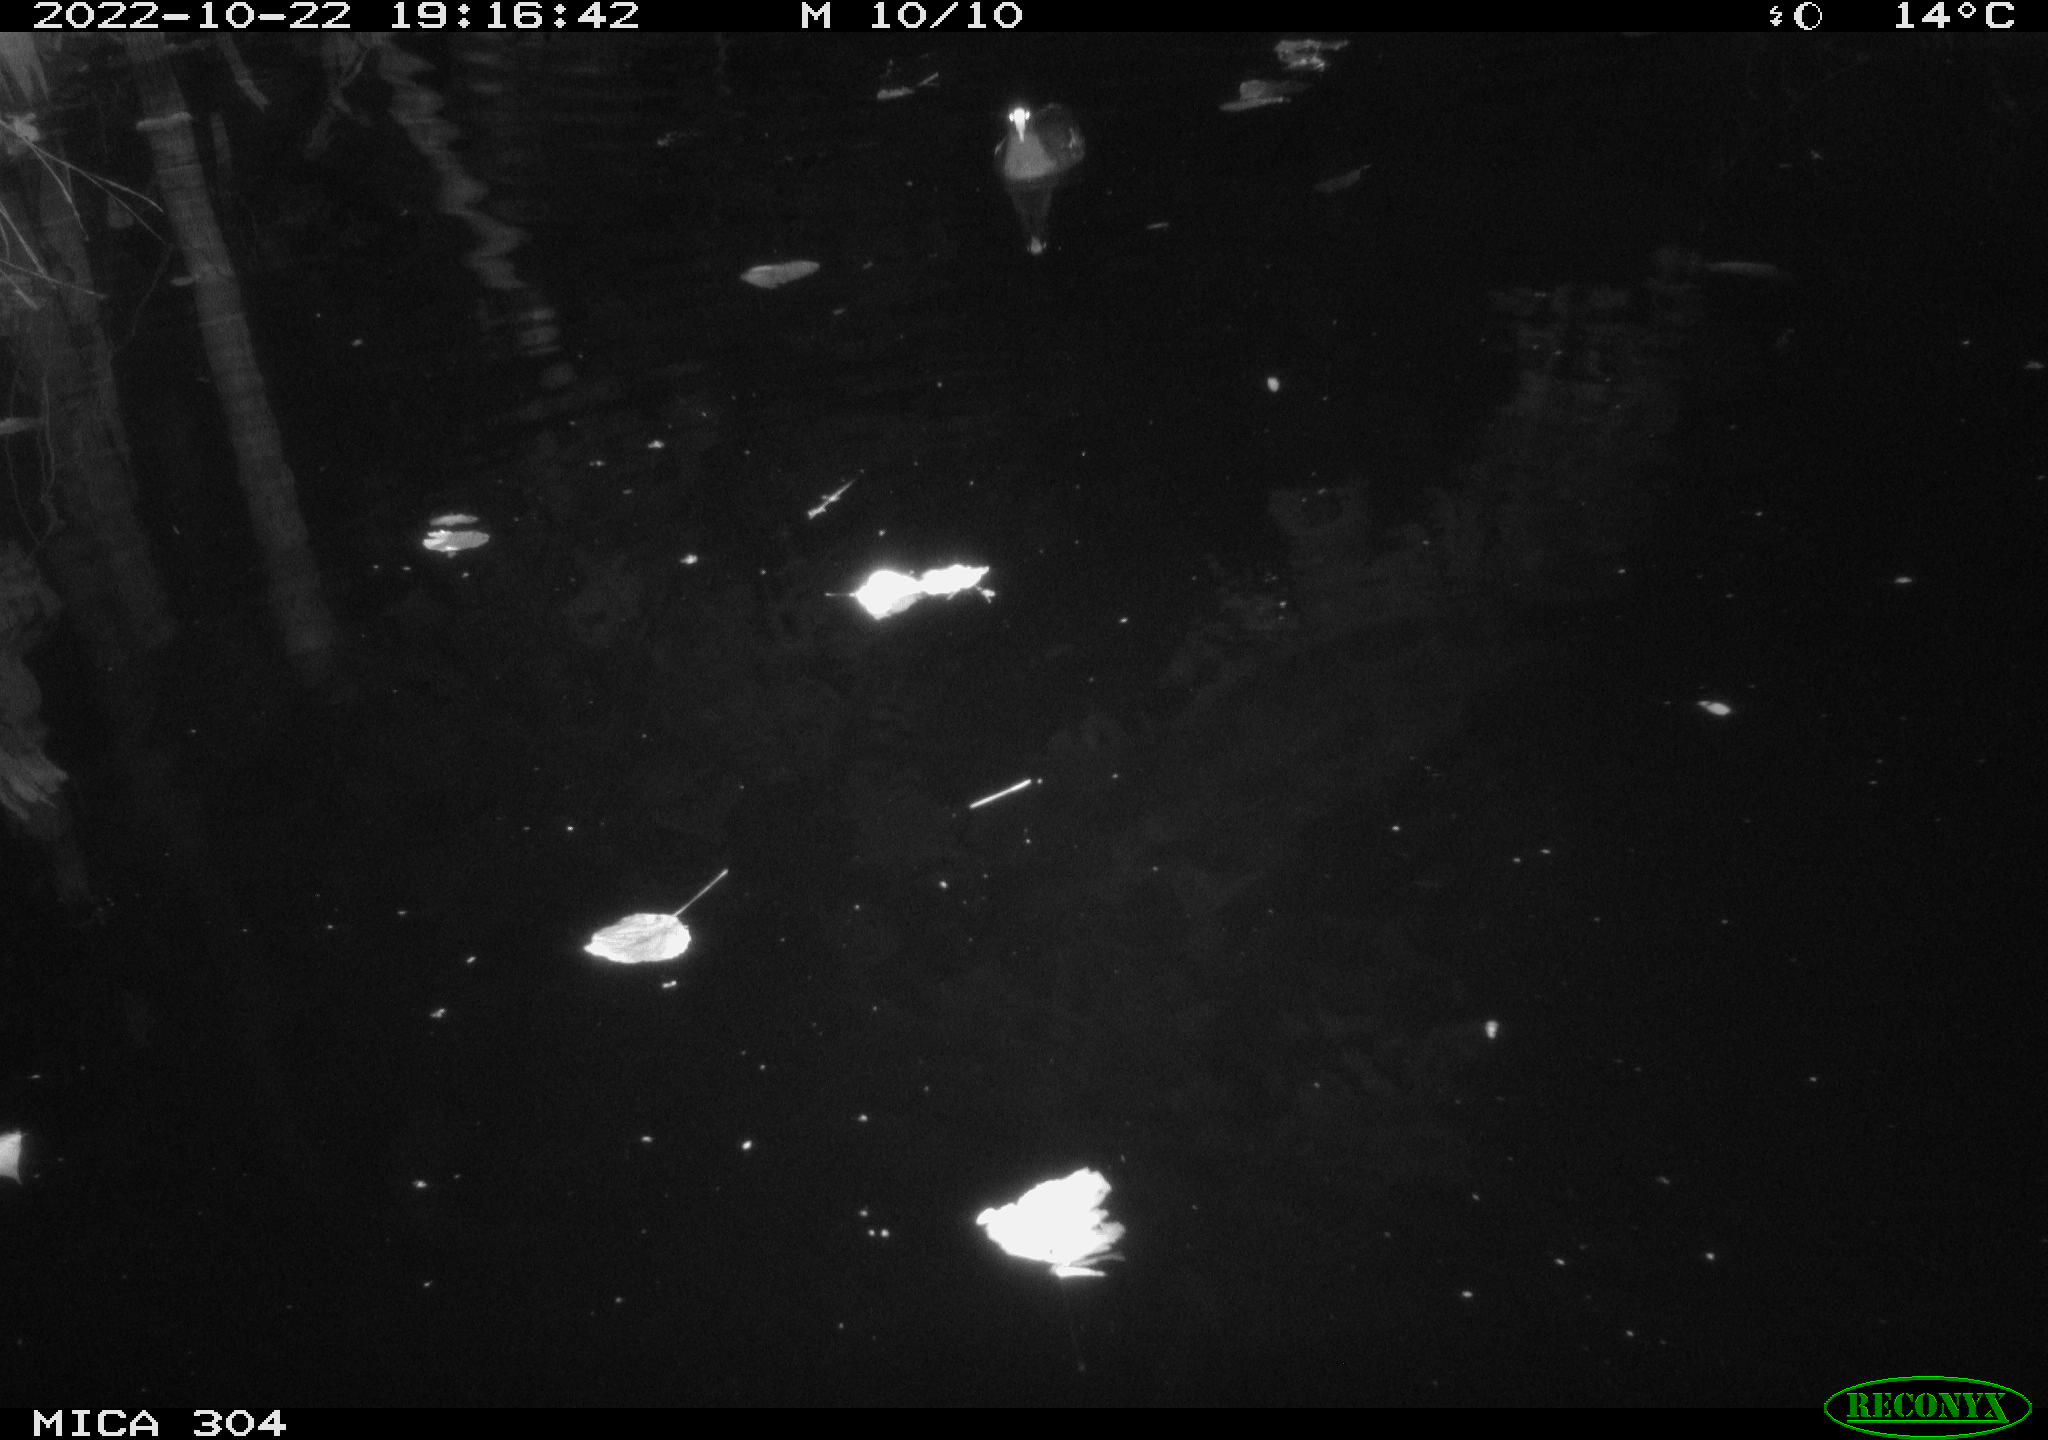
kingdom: Animalia
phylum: Chordata
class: Aves
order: Anseriformes
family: Anatidae
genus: Anas
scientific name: Anas
